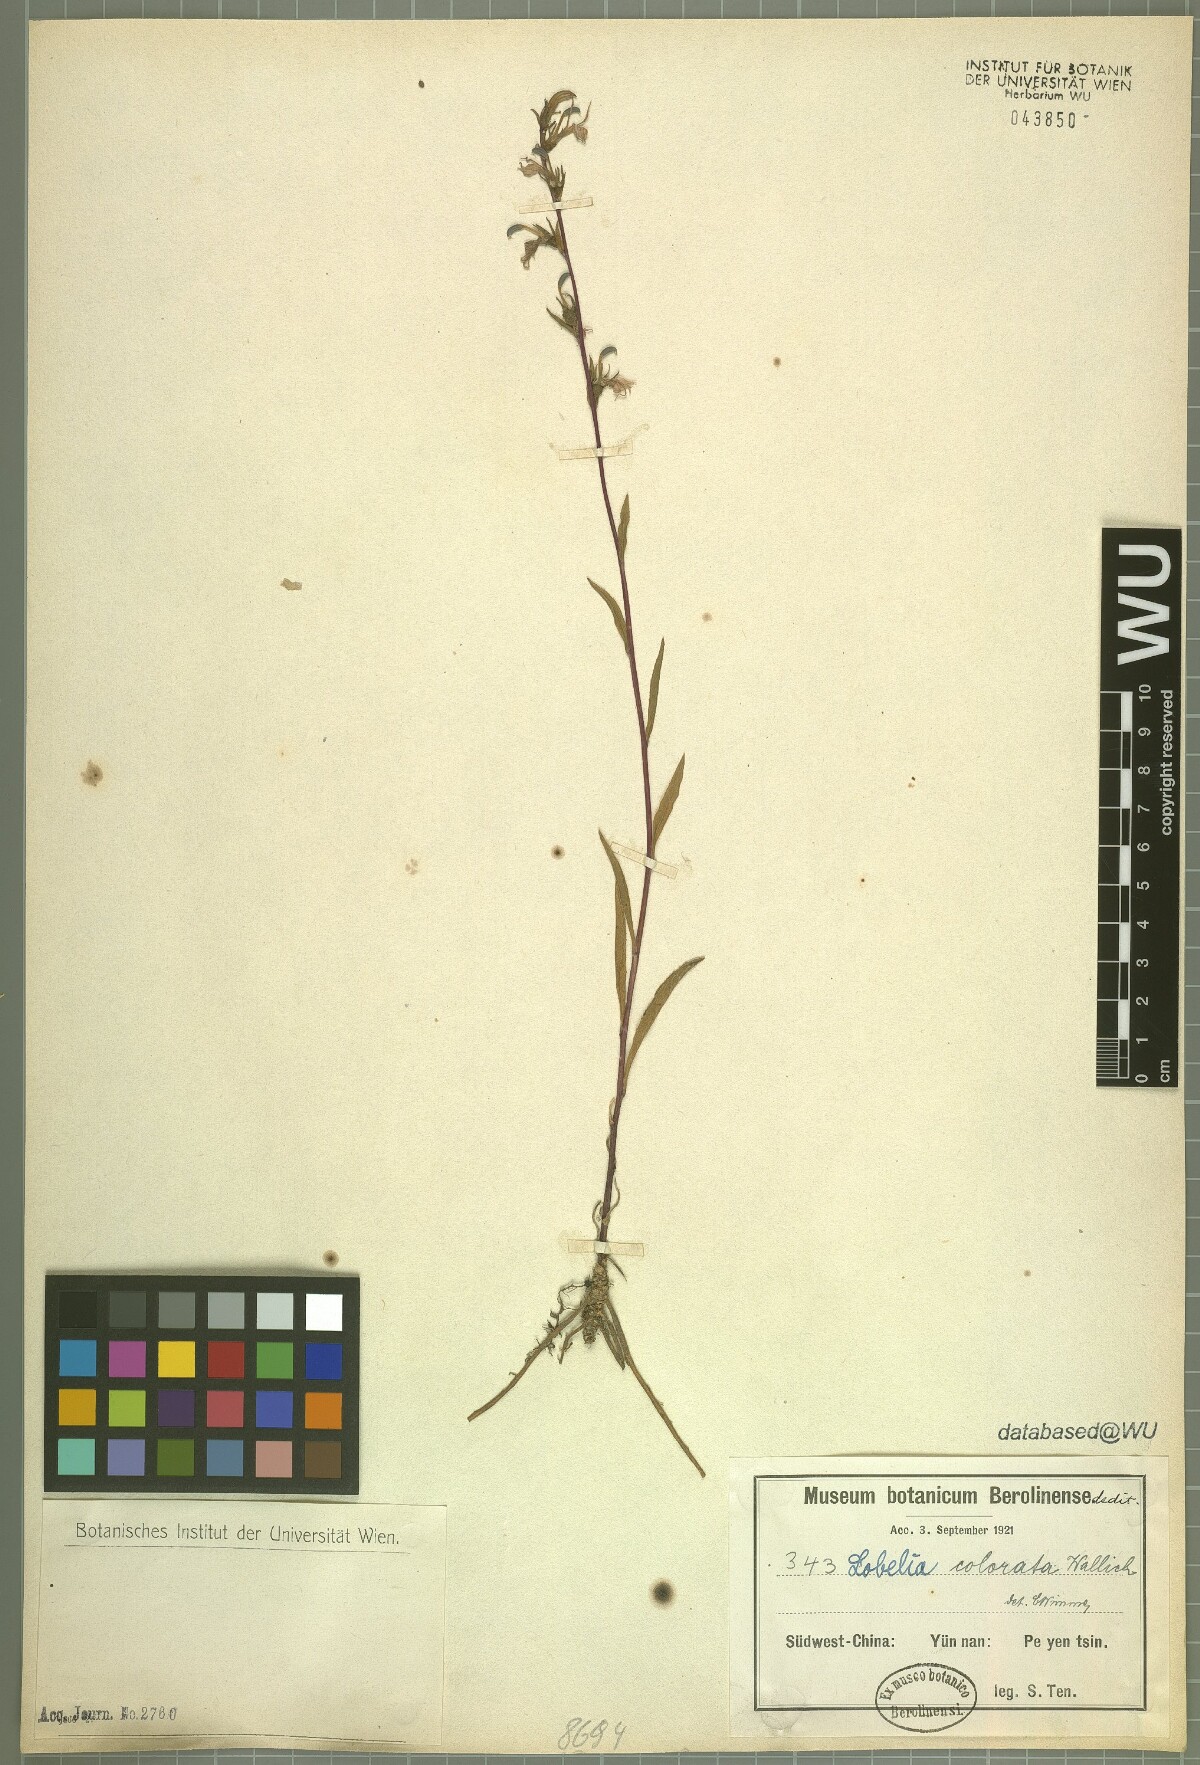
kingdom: Plantae
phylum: Tracheophyta
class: Magnoliopsida
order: Asterales
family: Campanulaceae
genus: Lobelia
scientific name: Lobelia
